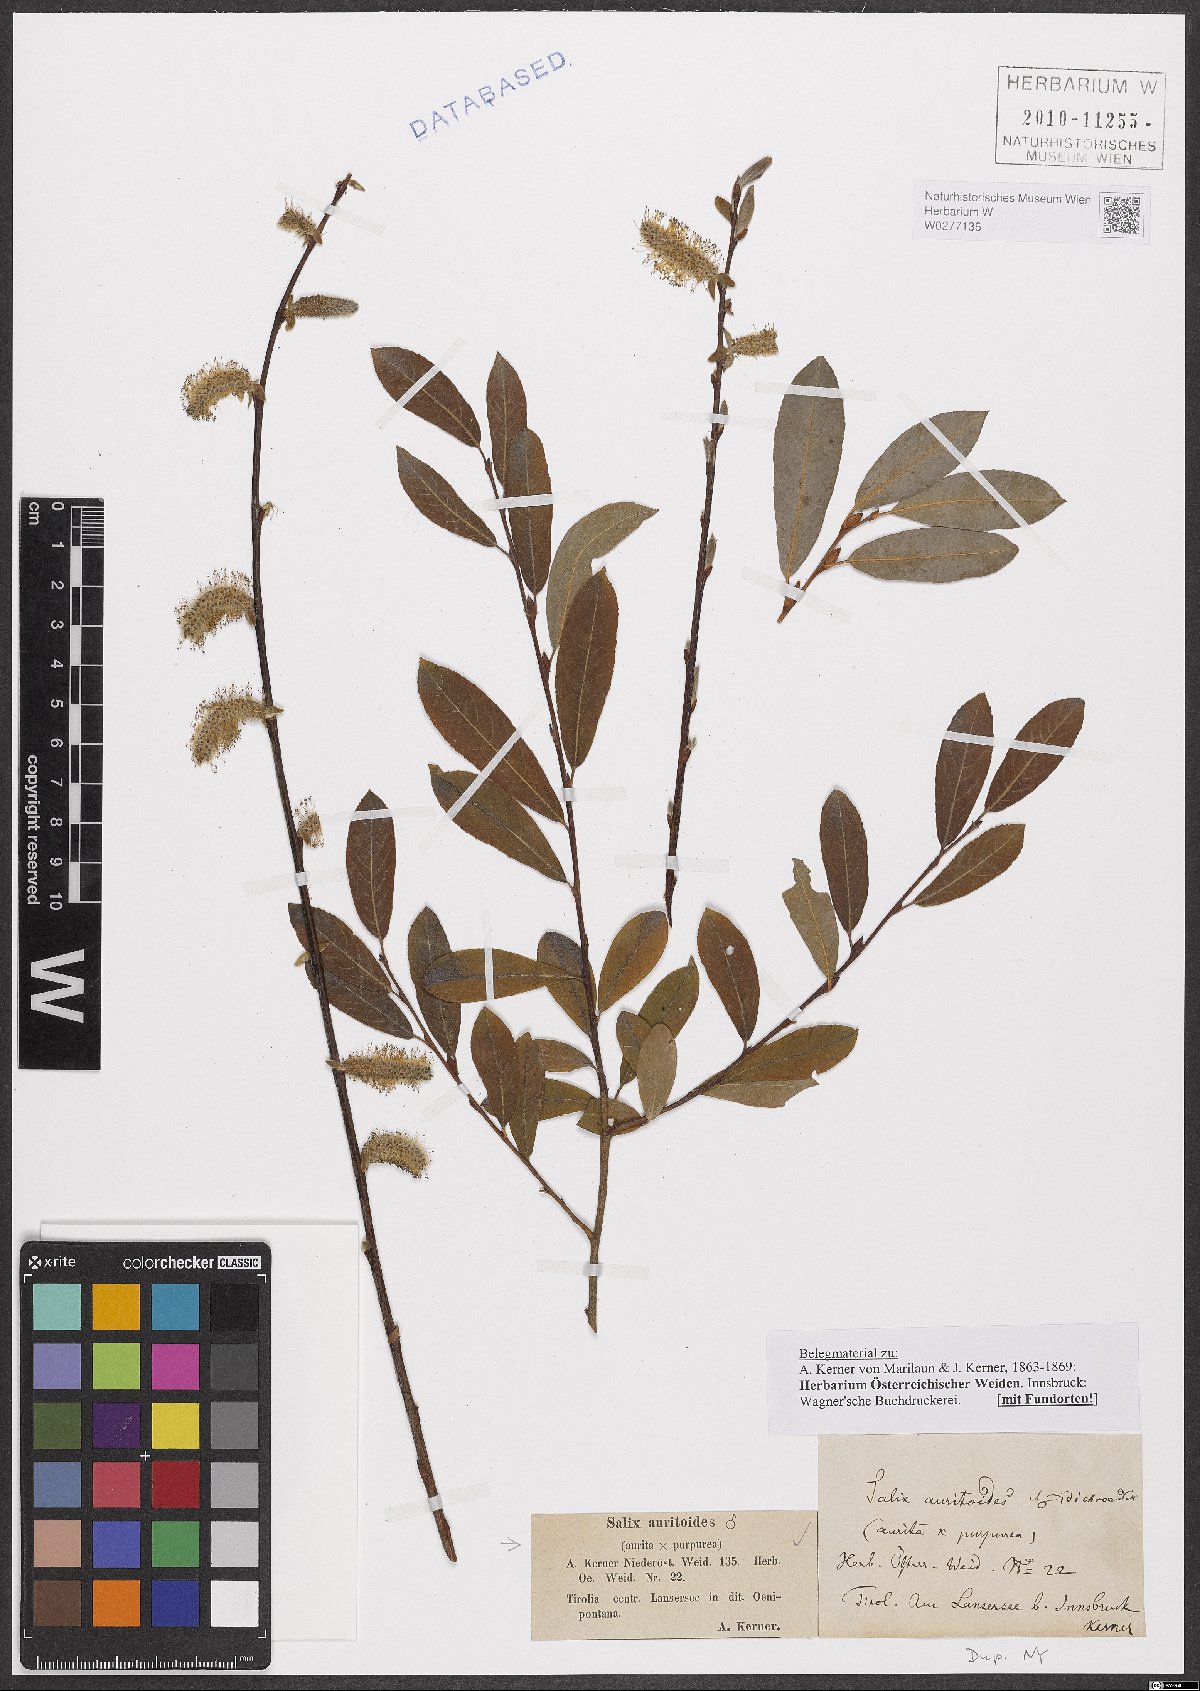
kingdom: Plantae
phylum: Tracheophyta
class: Magnoliopsida
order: Malpighiales
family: Salicaceae
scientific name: Salicaceae
